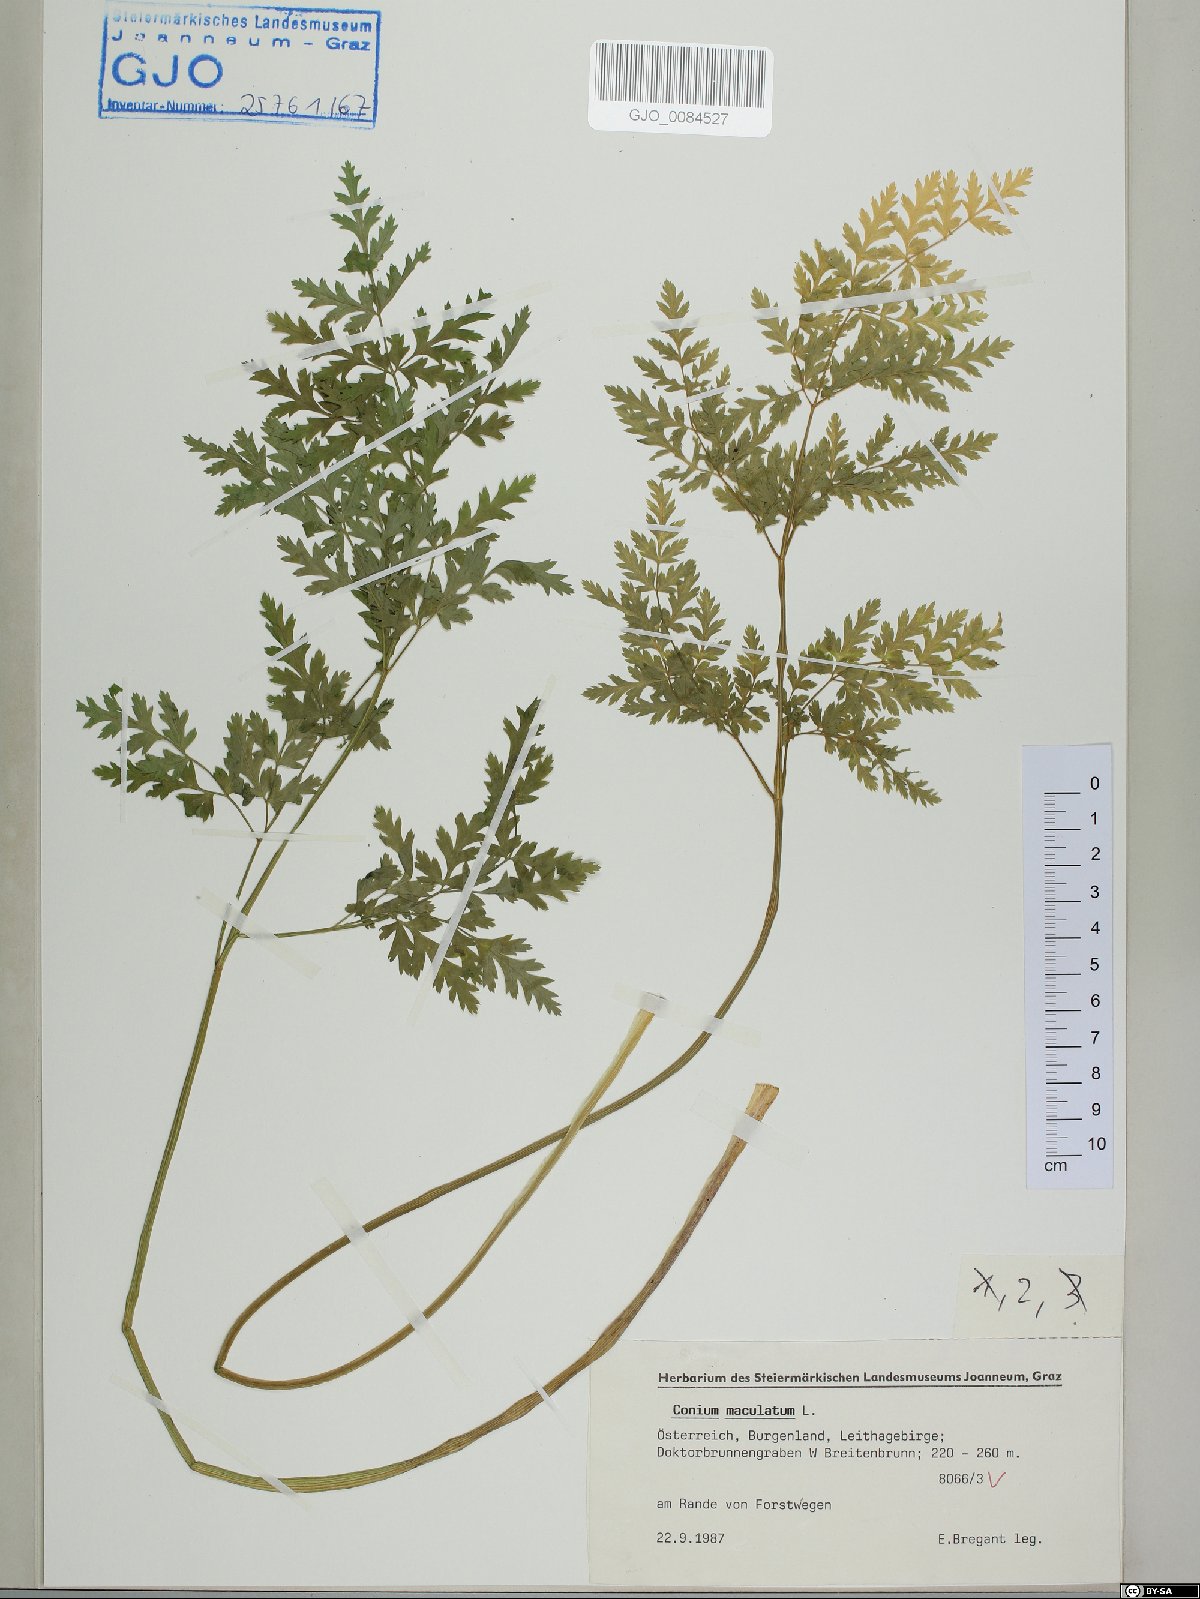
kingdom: Plantae
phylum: Tracheophyta
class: Magnoliopsida
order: Apiales
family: Apiaceae
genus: Conium
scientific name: Conium maculatum
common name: Hemlock
